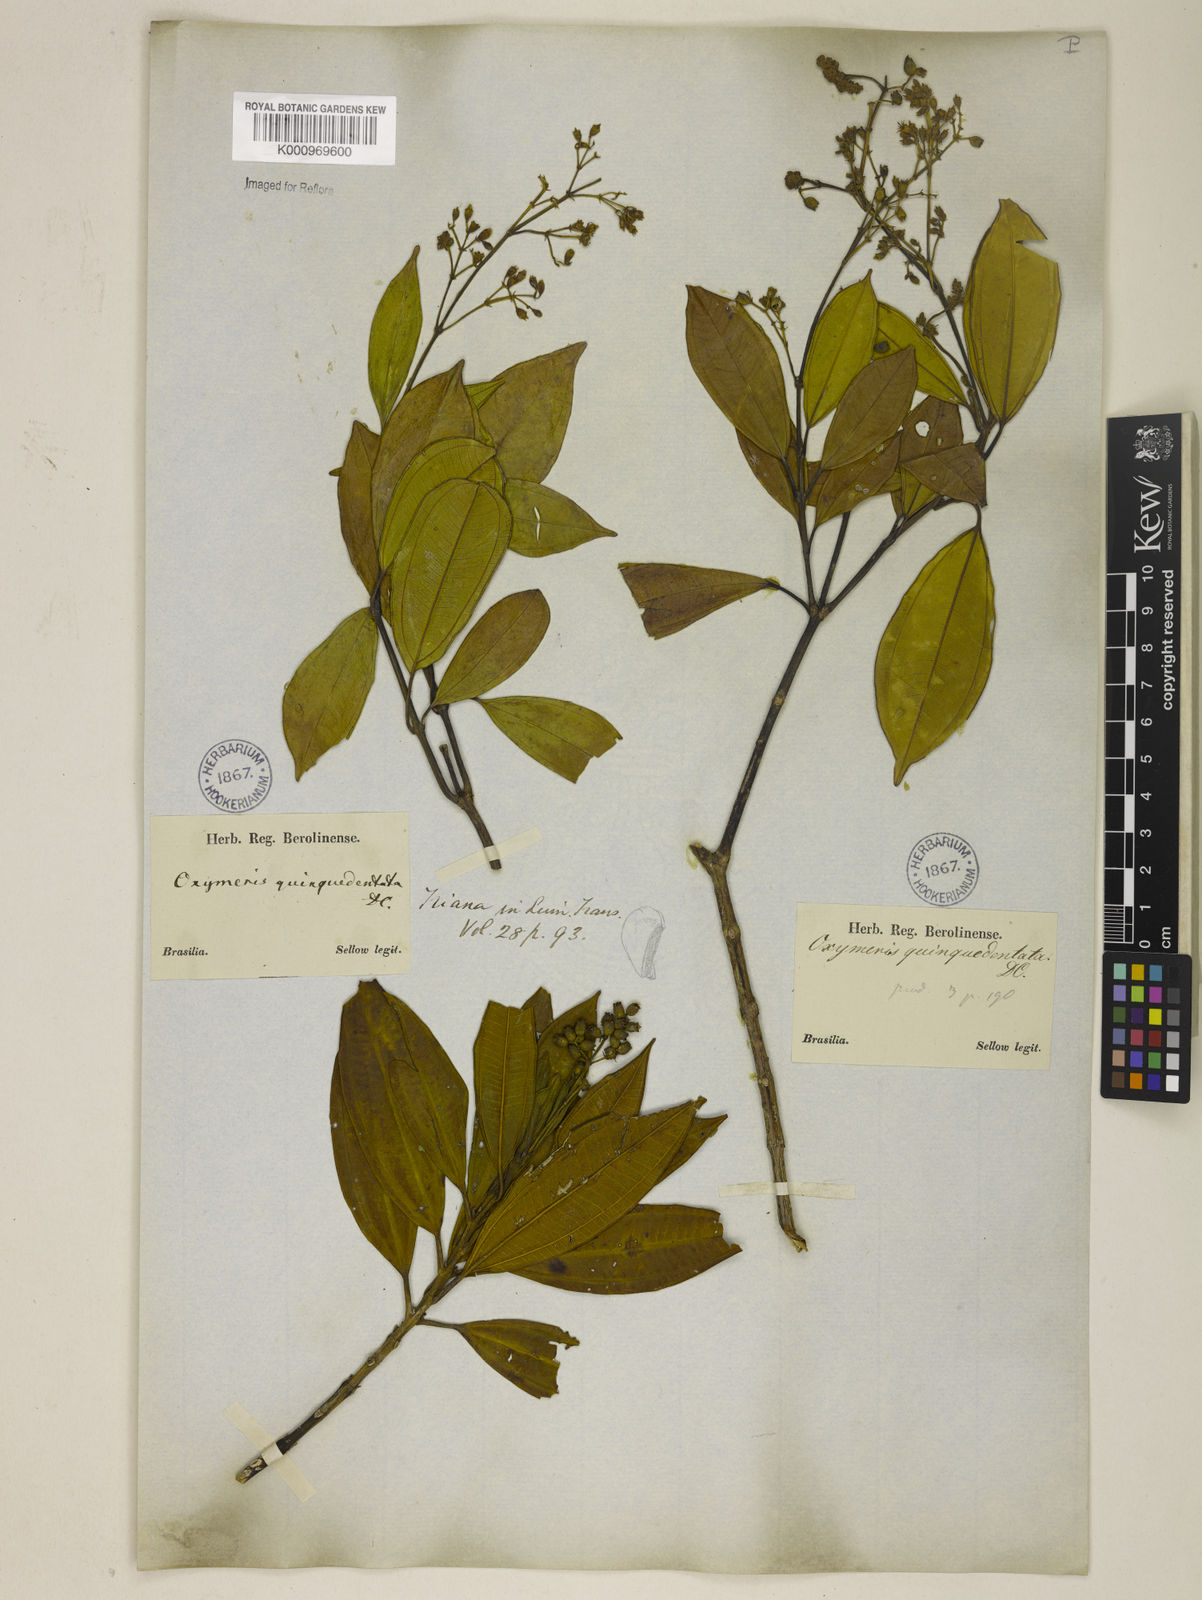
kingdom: Plantae
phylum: Tracheophyta
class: Magnoliopsida
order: Myrtales
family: Melastomataceae
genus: Miconia
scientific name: Miconia quinquedentata
